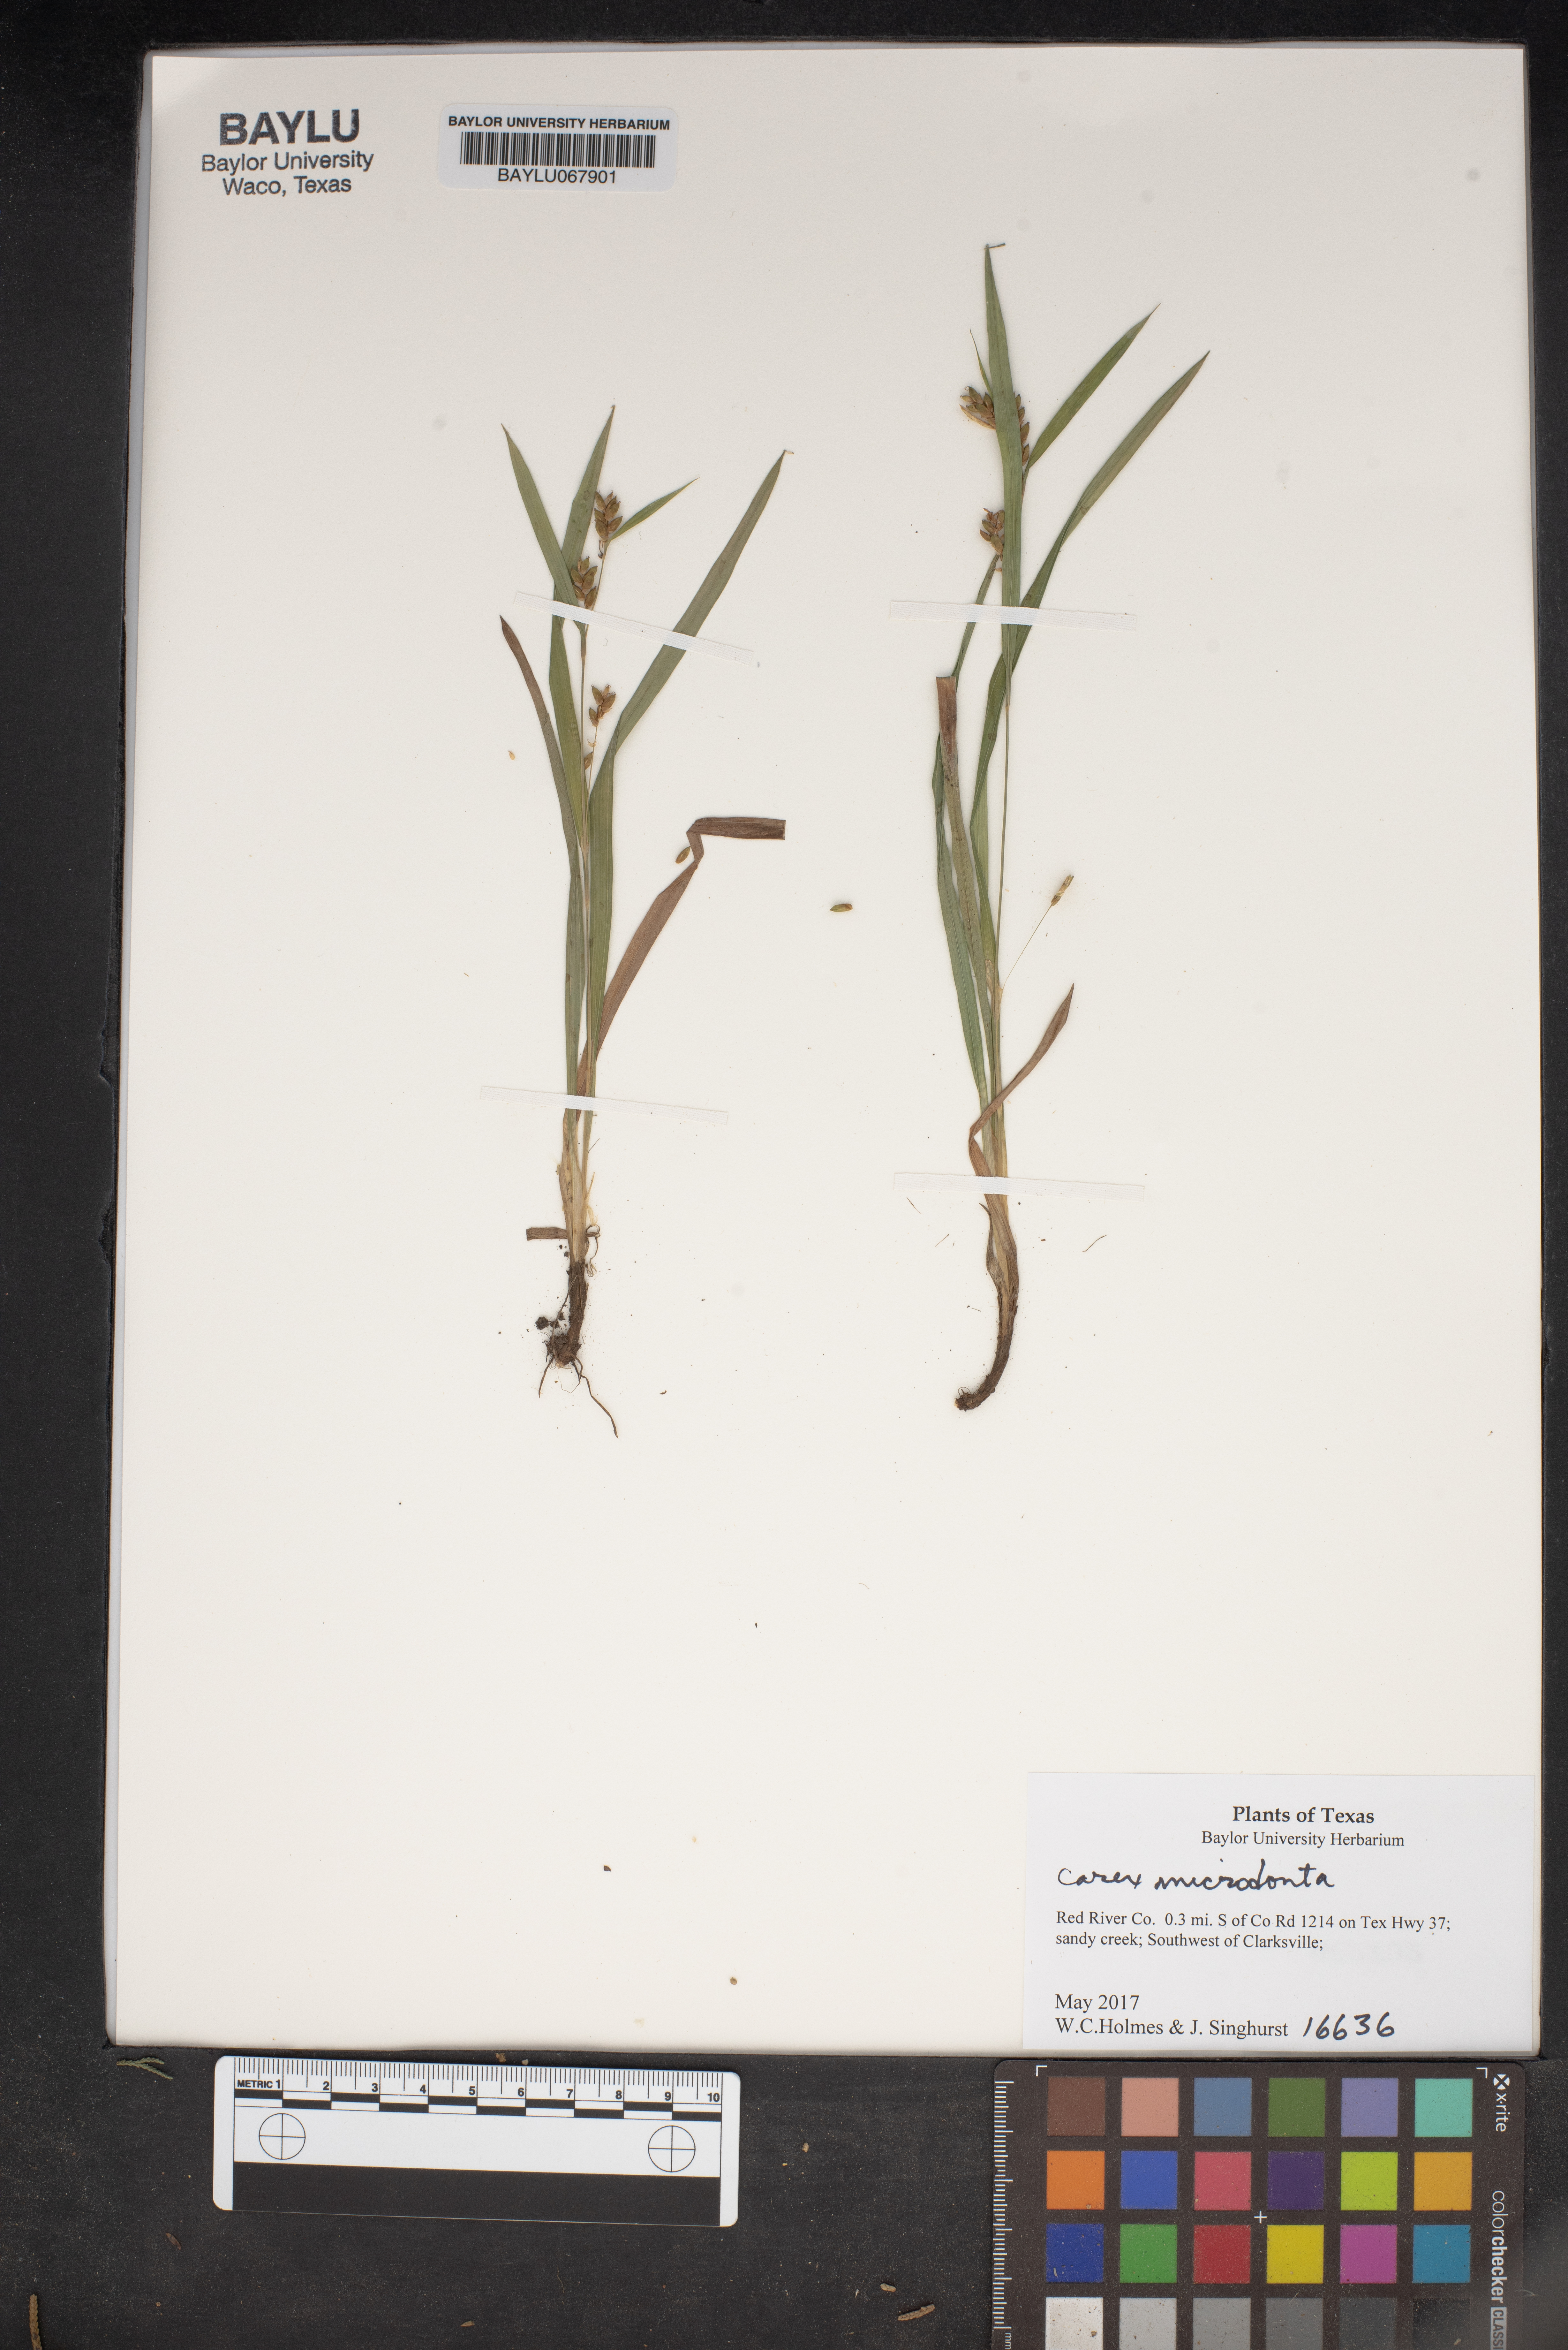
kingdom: Plantae
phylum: Tracheophyta
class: Liliopsida
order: Poales
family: Cyperaceae
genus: Carex
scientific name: Carex microdonta
